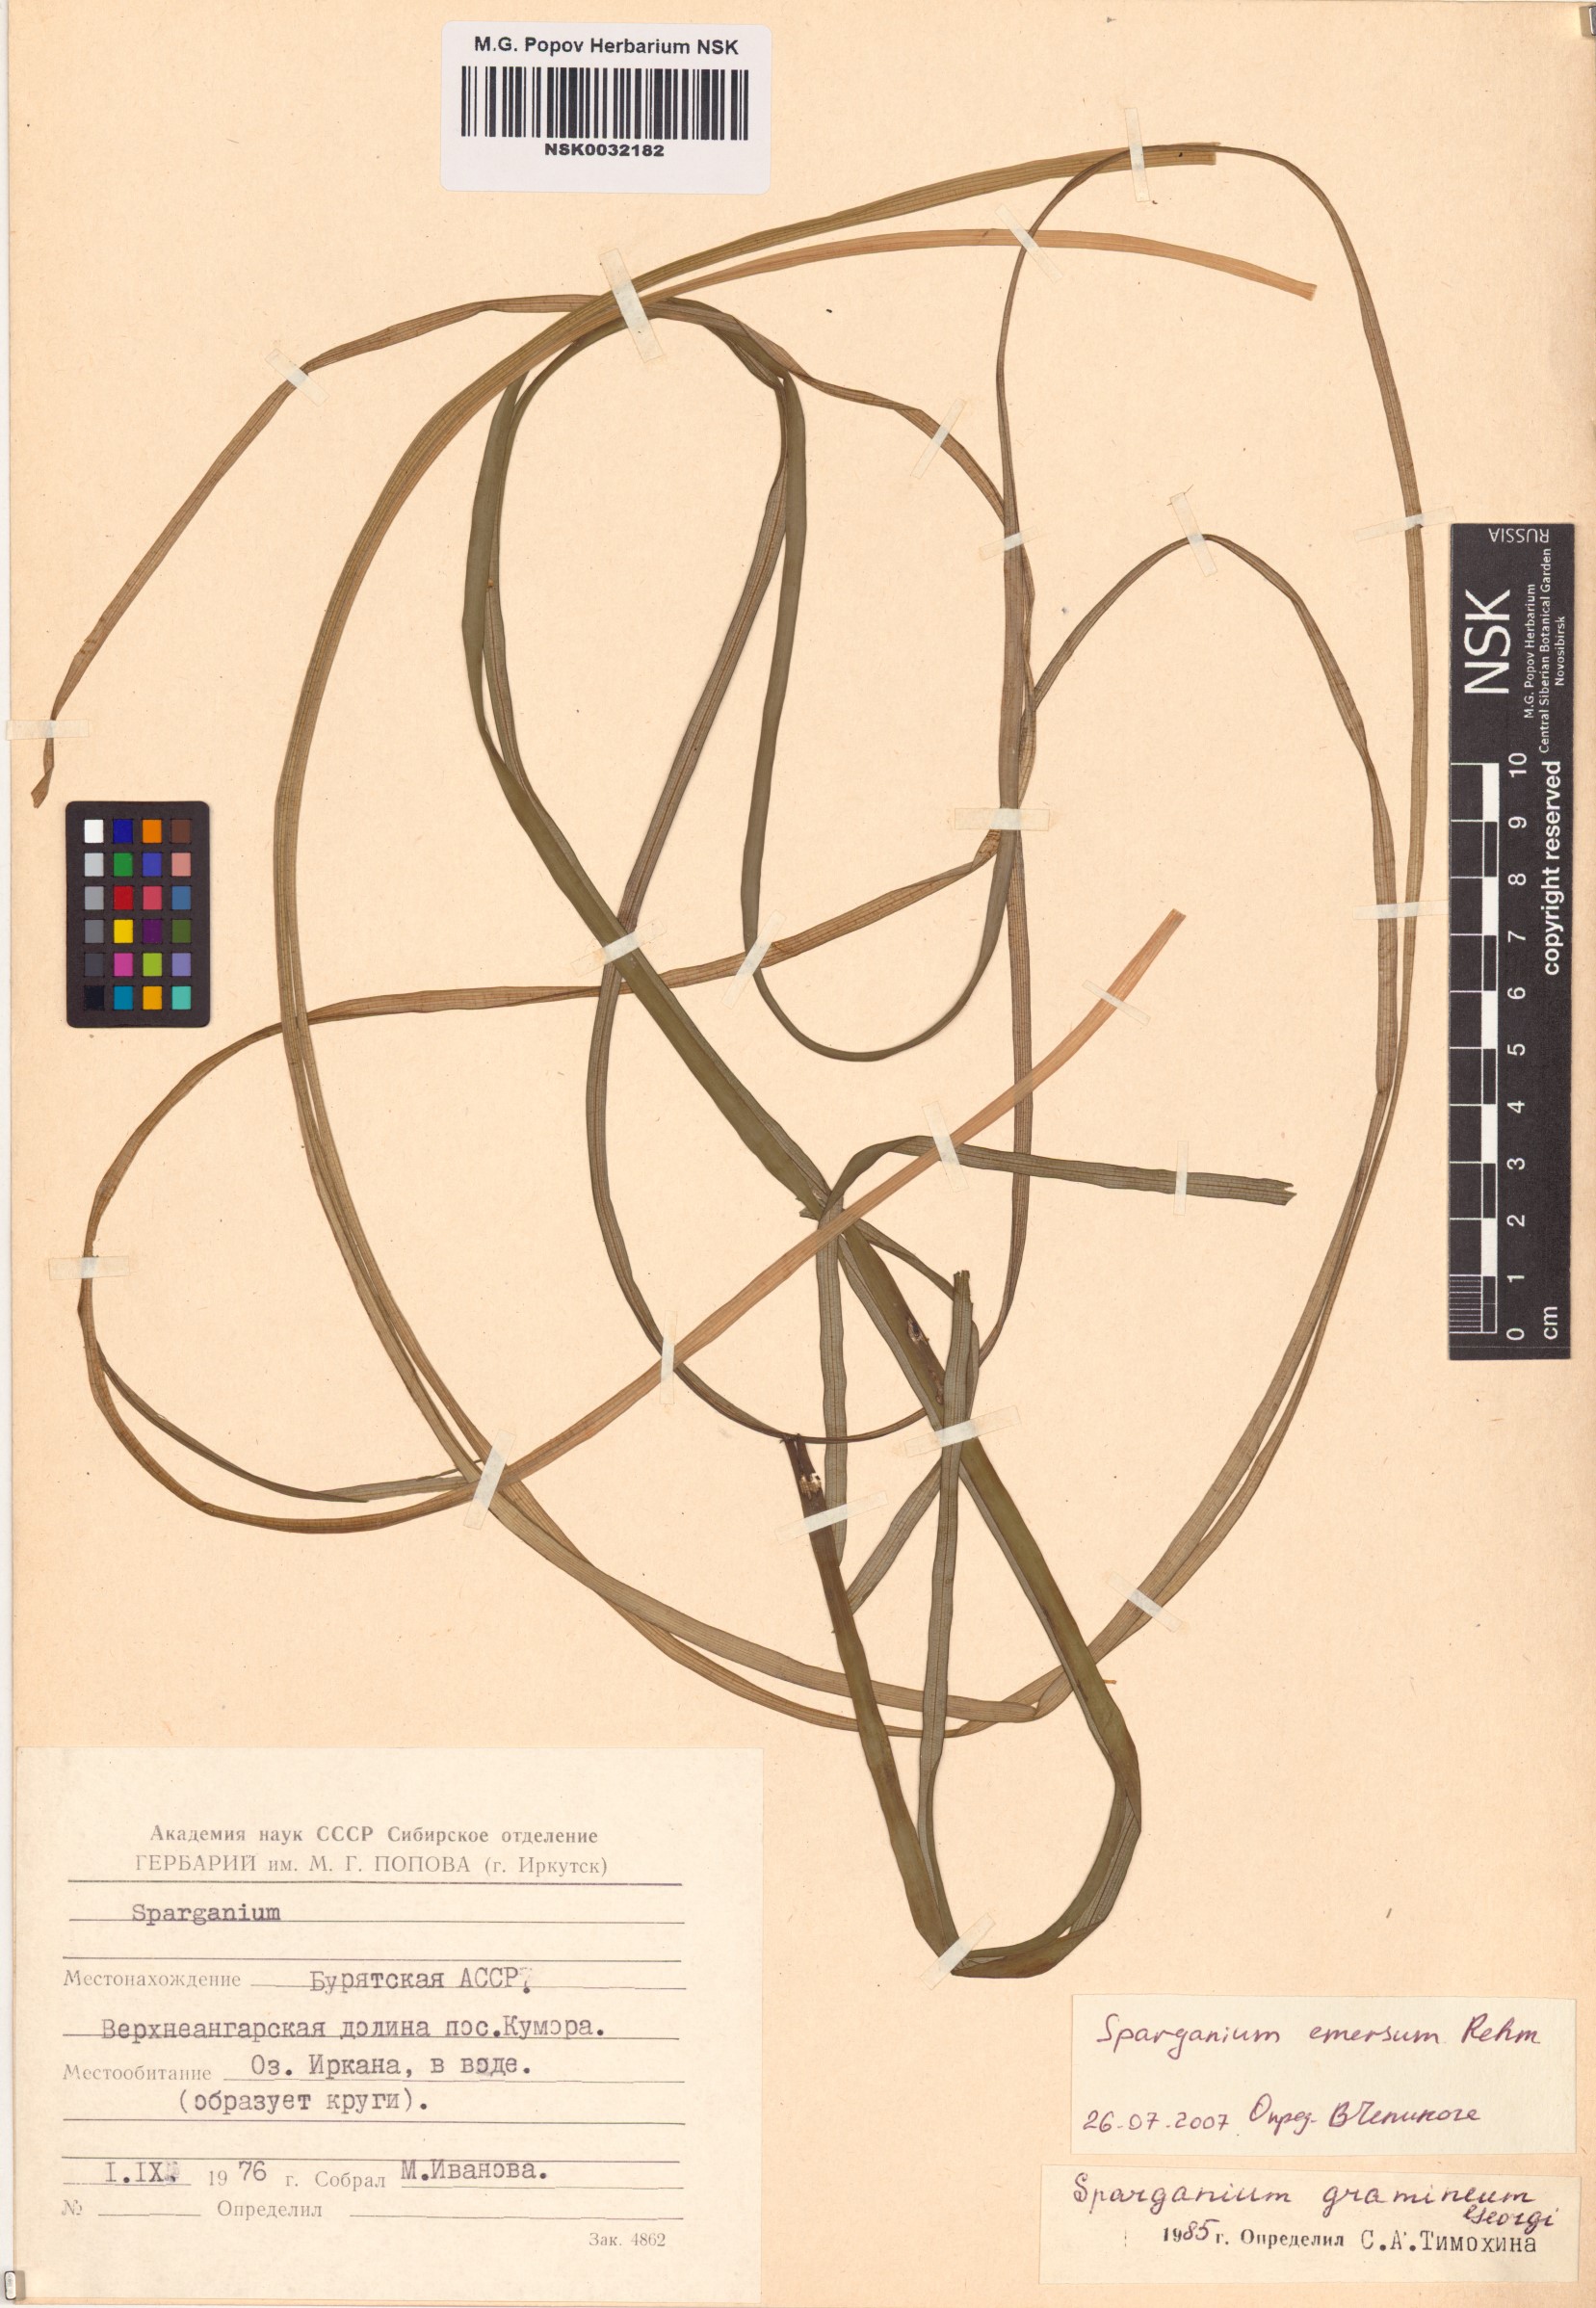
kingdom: Plantae
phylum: Tracheophyta
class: Liliopsida
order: Poales
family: Typhaceae
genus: Sparganium
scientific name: Sparganium emersum
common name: Unbranched bur-reed
